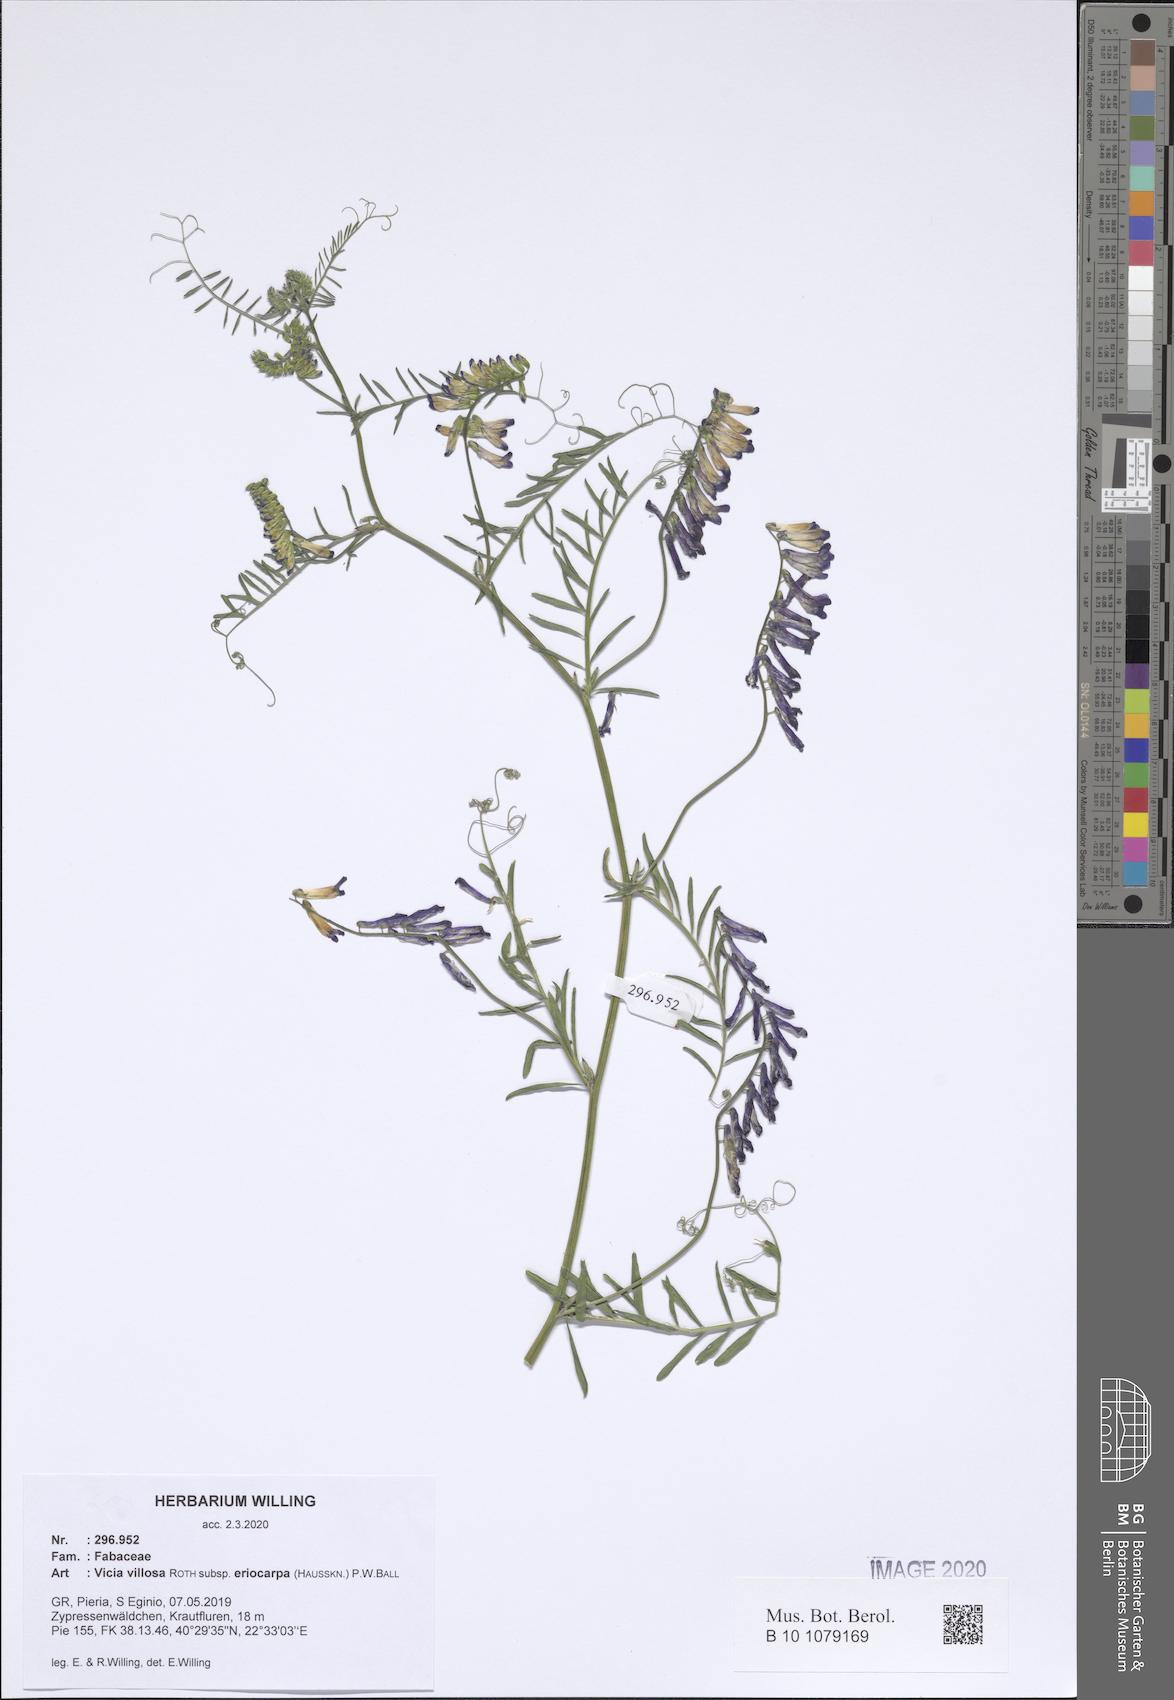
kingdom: Plantae
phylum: Tracheophyta
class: Magnoliopsida
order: Fabales
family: Fabaceae
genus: Vicia
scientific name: Vicia eriocarpa
